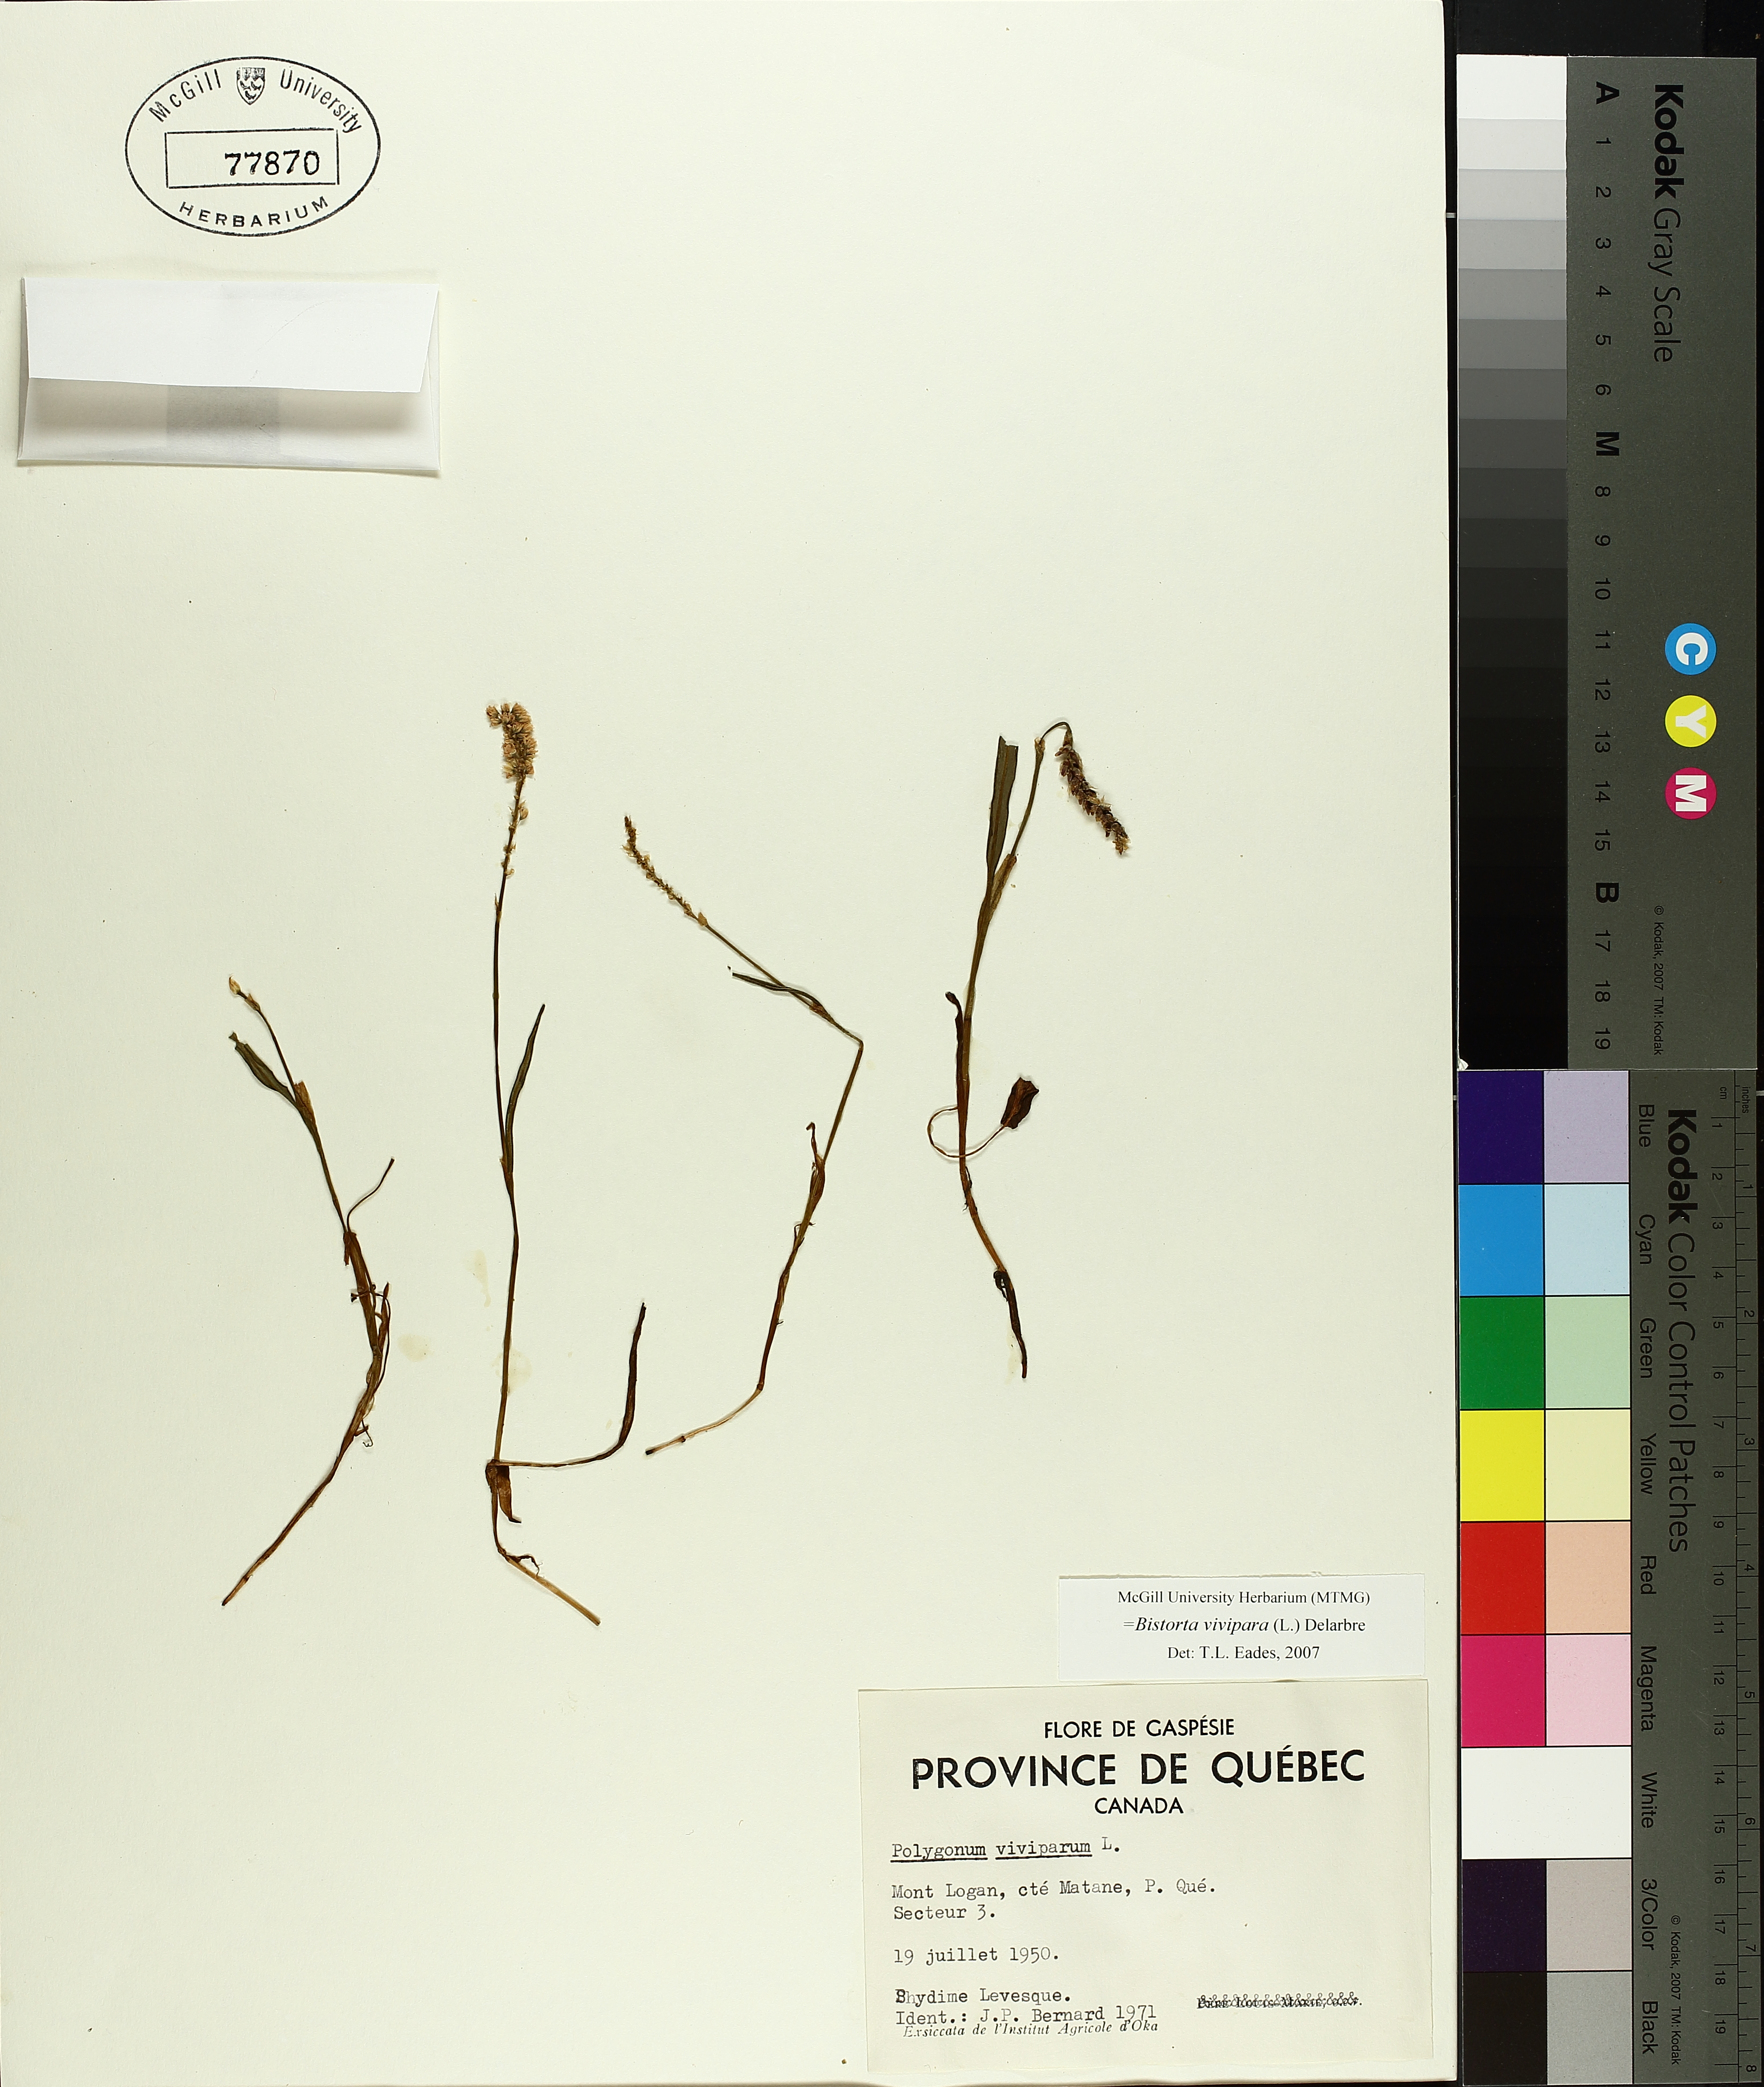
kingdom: Plantae
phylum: Tracheophyta
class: Magnoliopsida
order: Caryophyllales
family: Polygonaceae
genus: Bistorta
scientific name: Bistorta vivipara
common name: Alpine bistort
